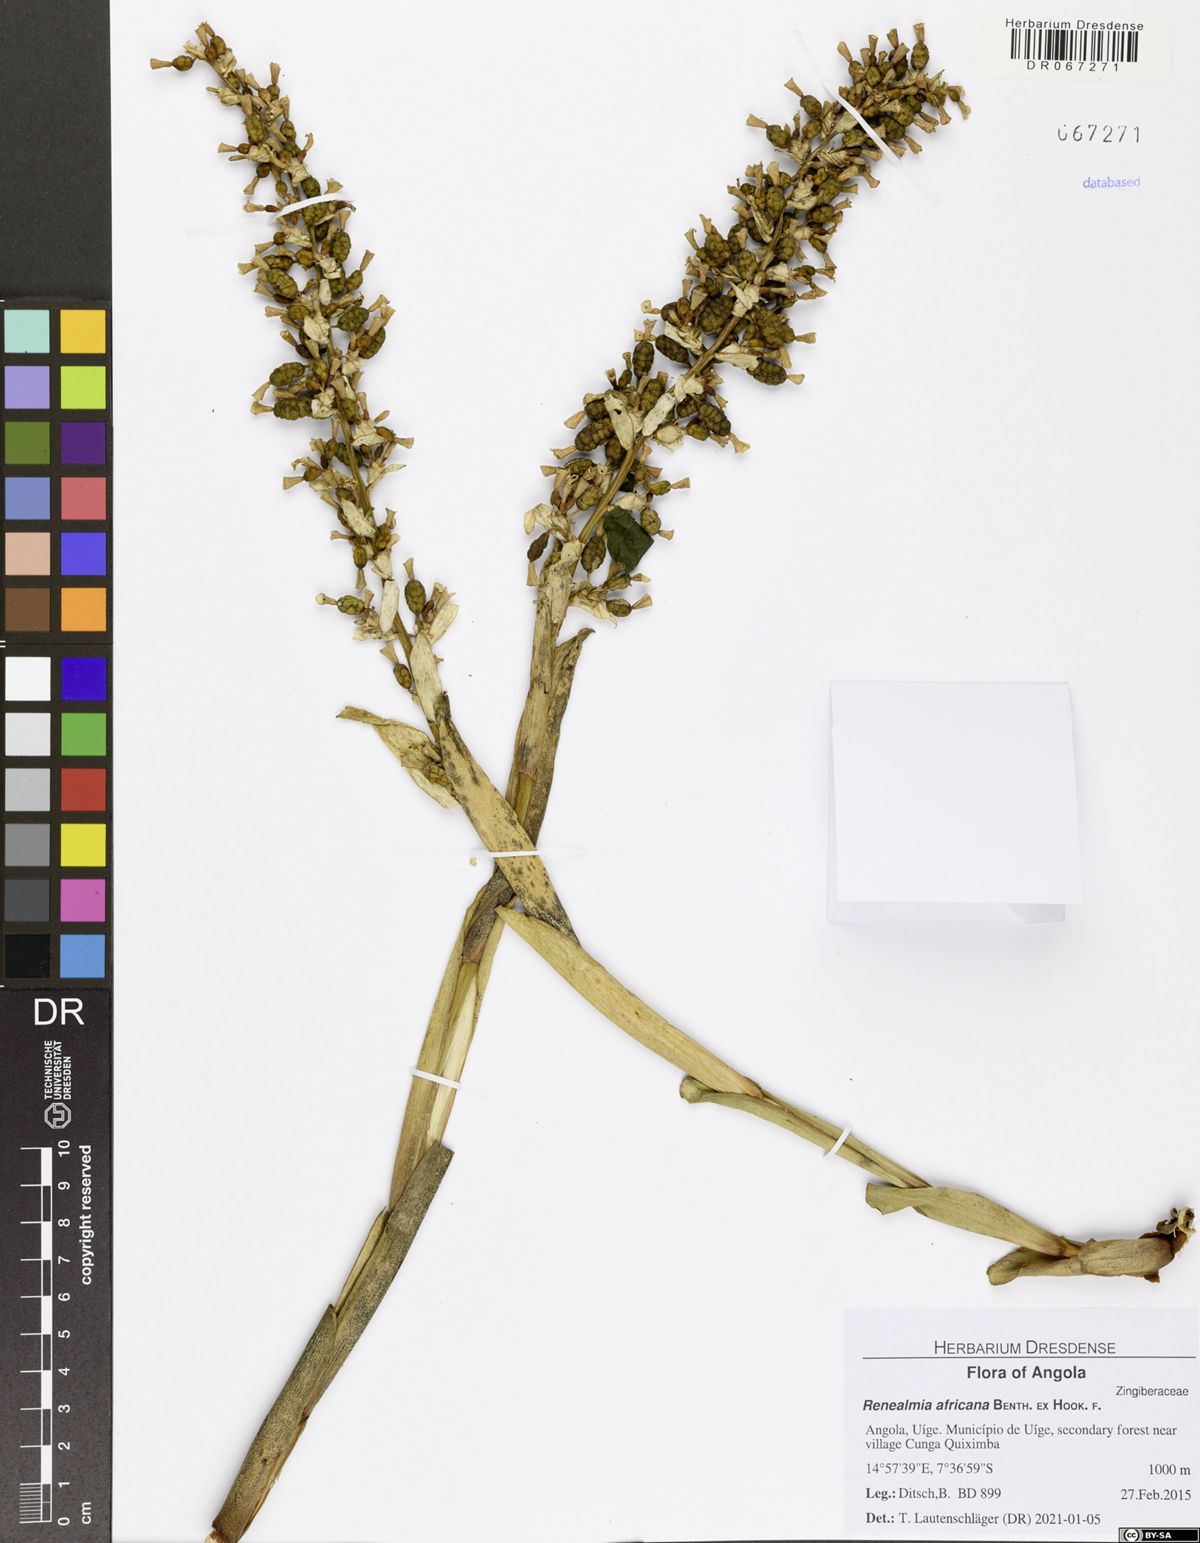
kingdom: Plantae
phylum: Tracheophyta
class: Liliopsida
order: Zingiberales
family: Zingiberaceae
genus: Renealmia
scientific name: Renealmia africana
